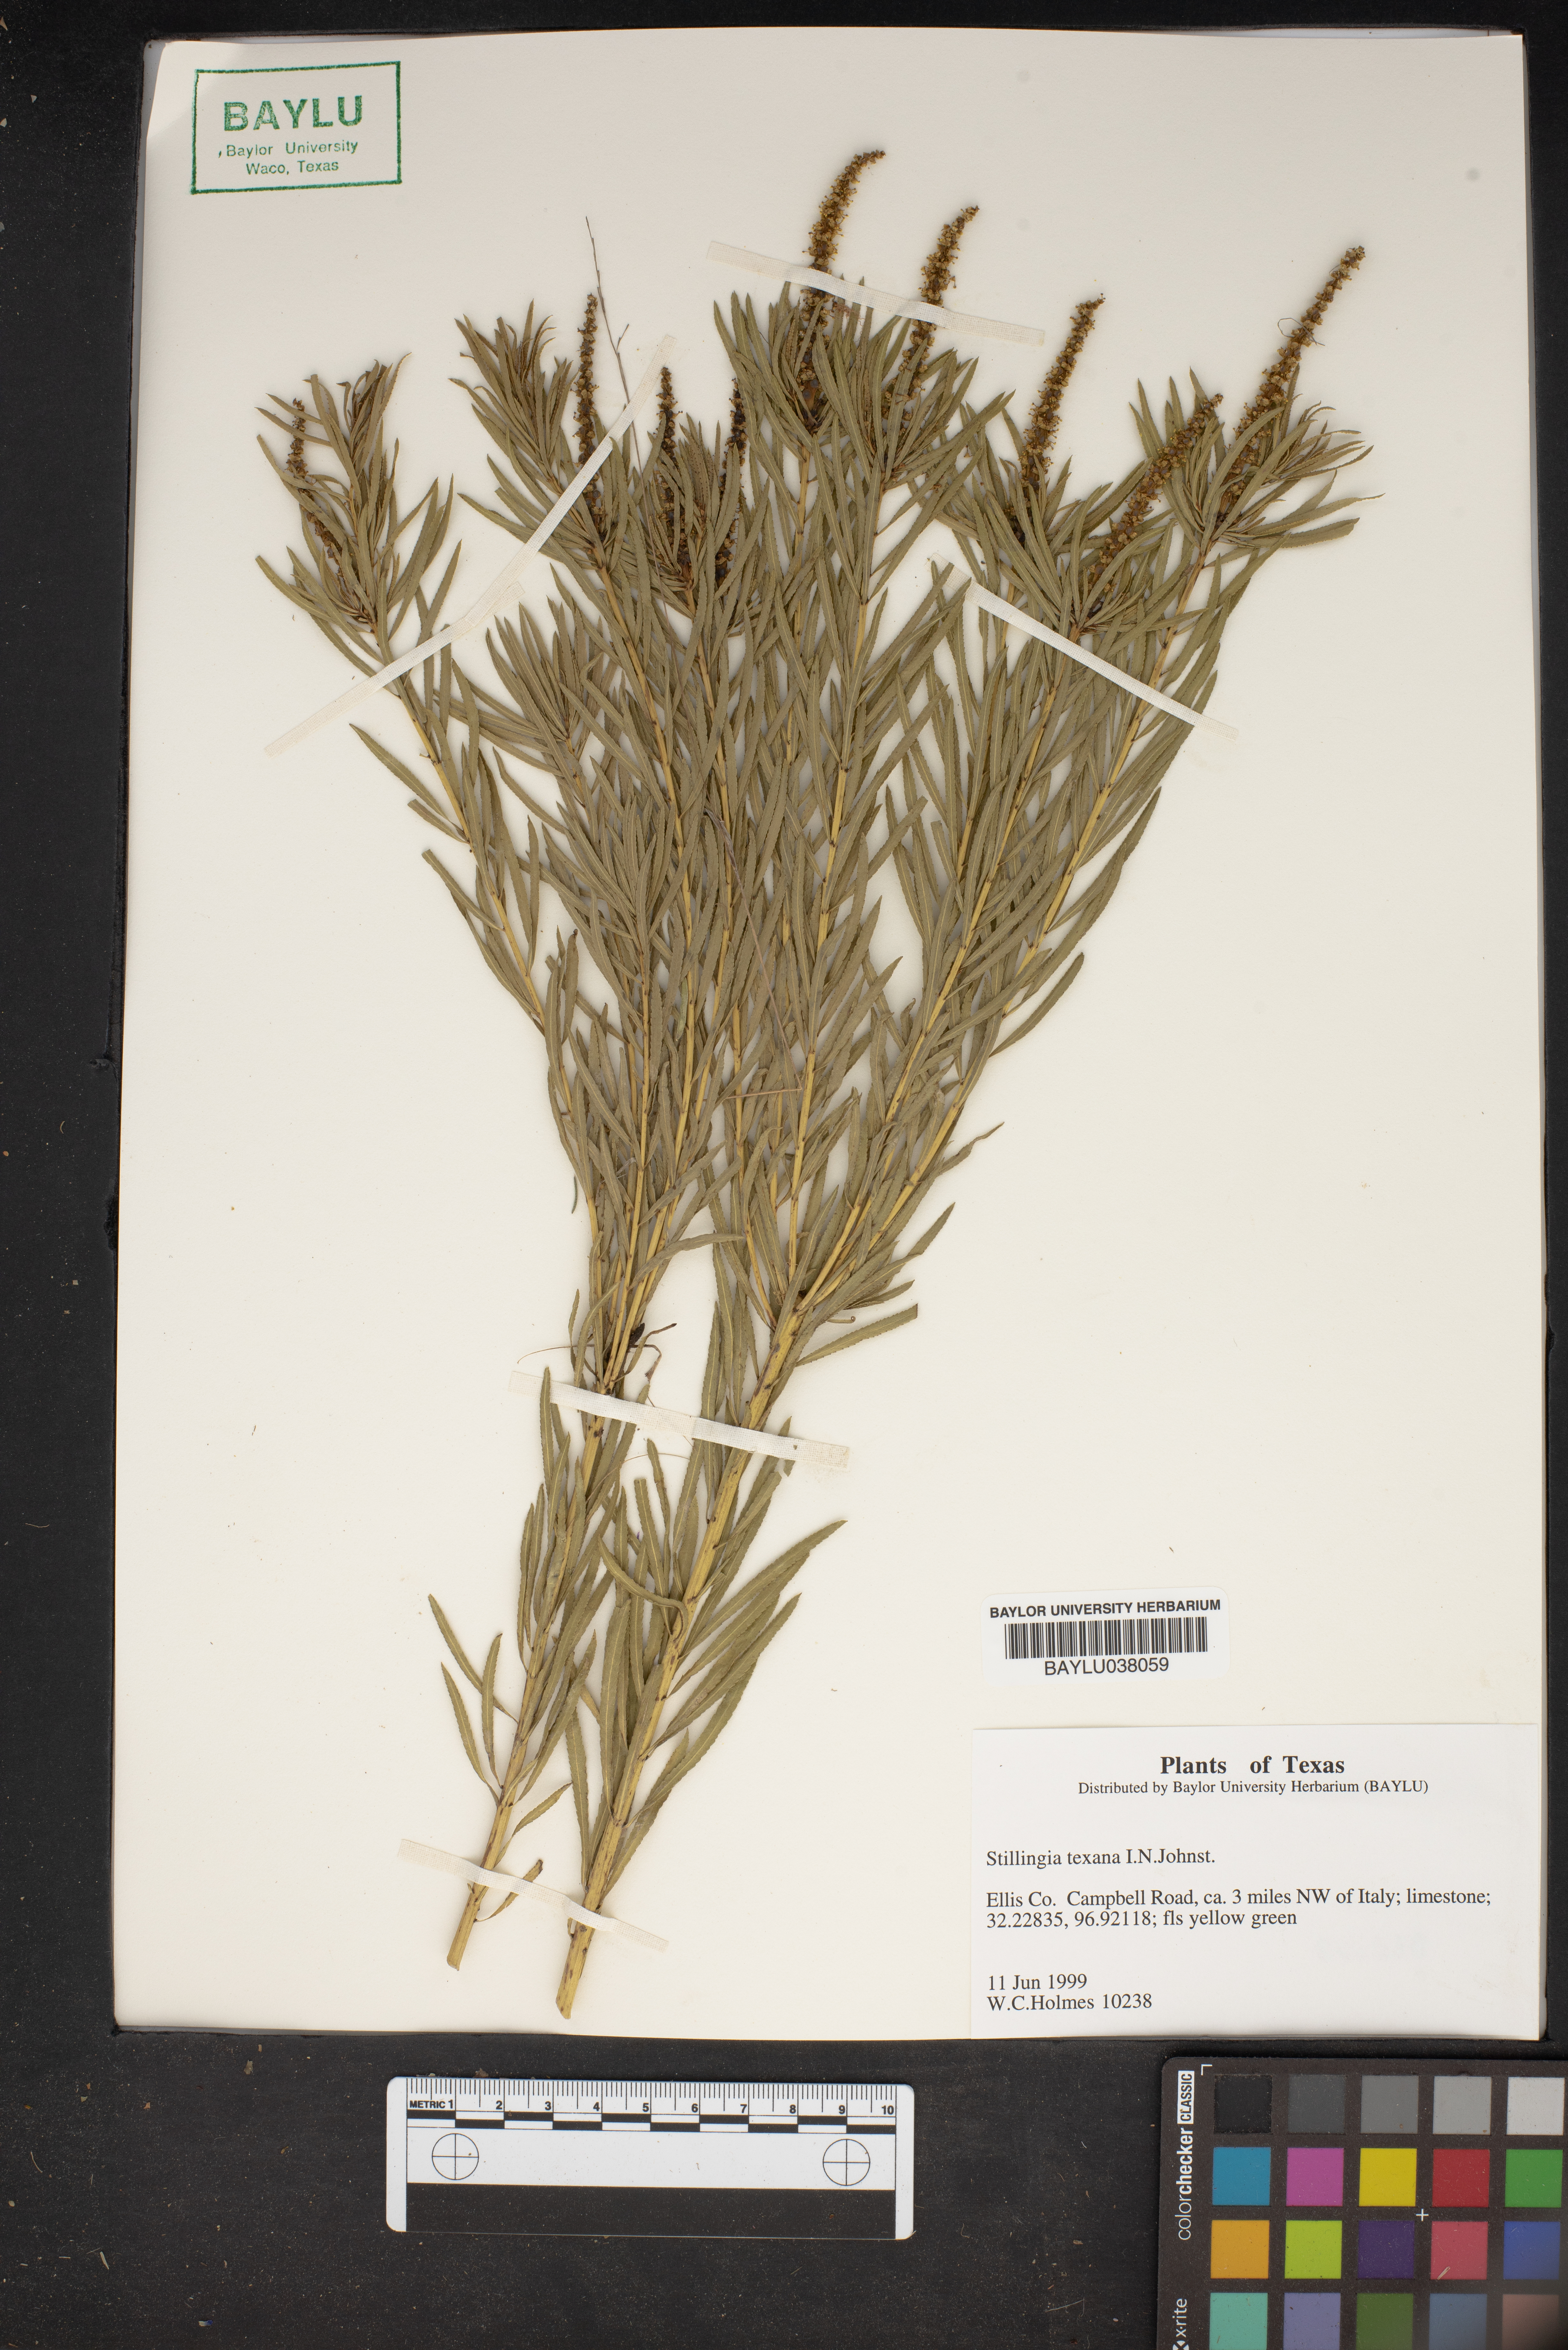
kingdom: Plantae
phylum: Tracheophyta
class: Magnoliopsida
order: Malpighiales
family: Euphorbiaceae
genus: Stillingia
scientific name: Stillingia texana
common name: Texas stillingia
